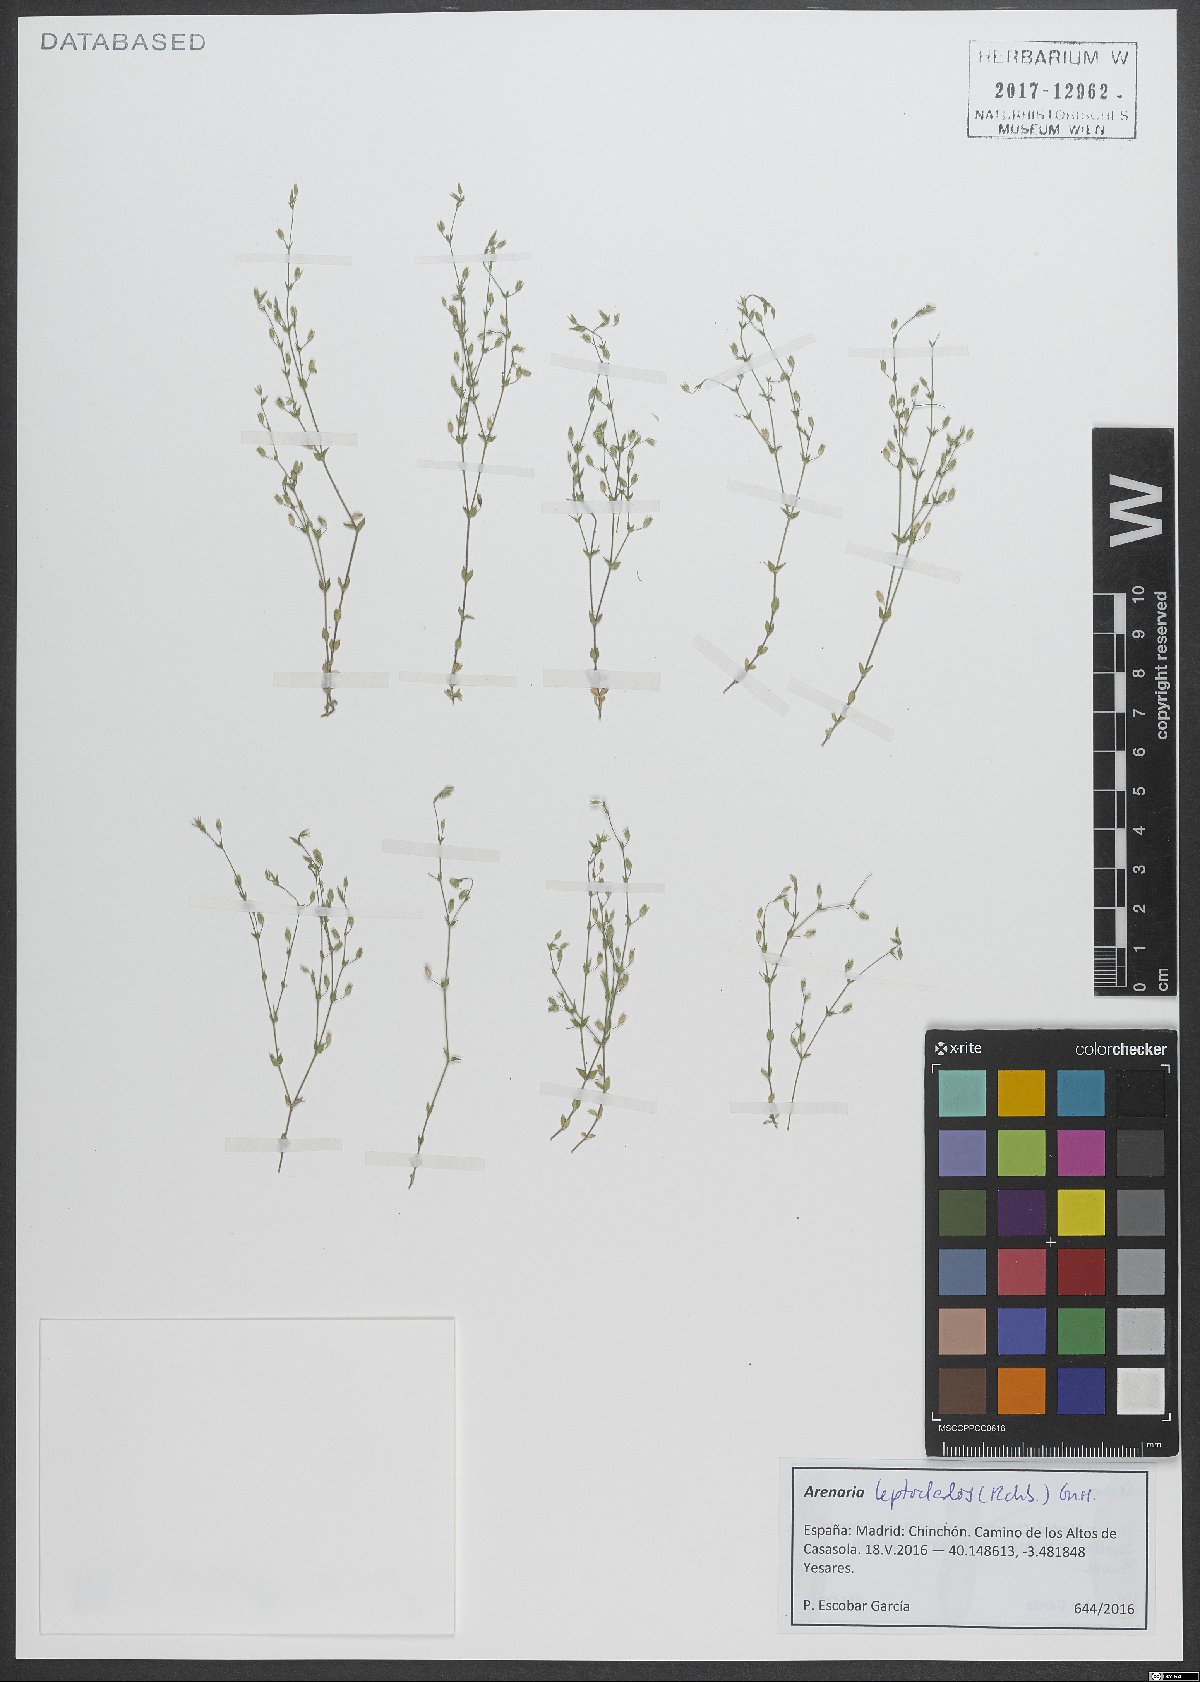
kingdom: Plantae
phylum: Tracheophyta
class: Magnoliopsida
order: Caryophyllales
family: Caryophyllaceae
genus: Arenaria
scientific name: Arenaria leptoclados
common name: Thyme-leaved sandwort
